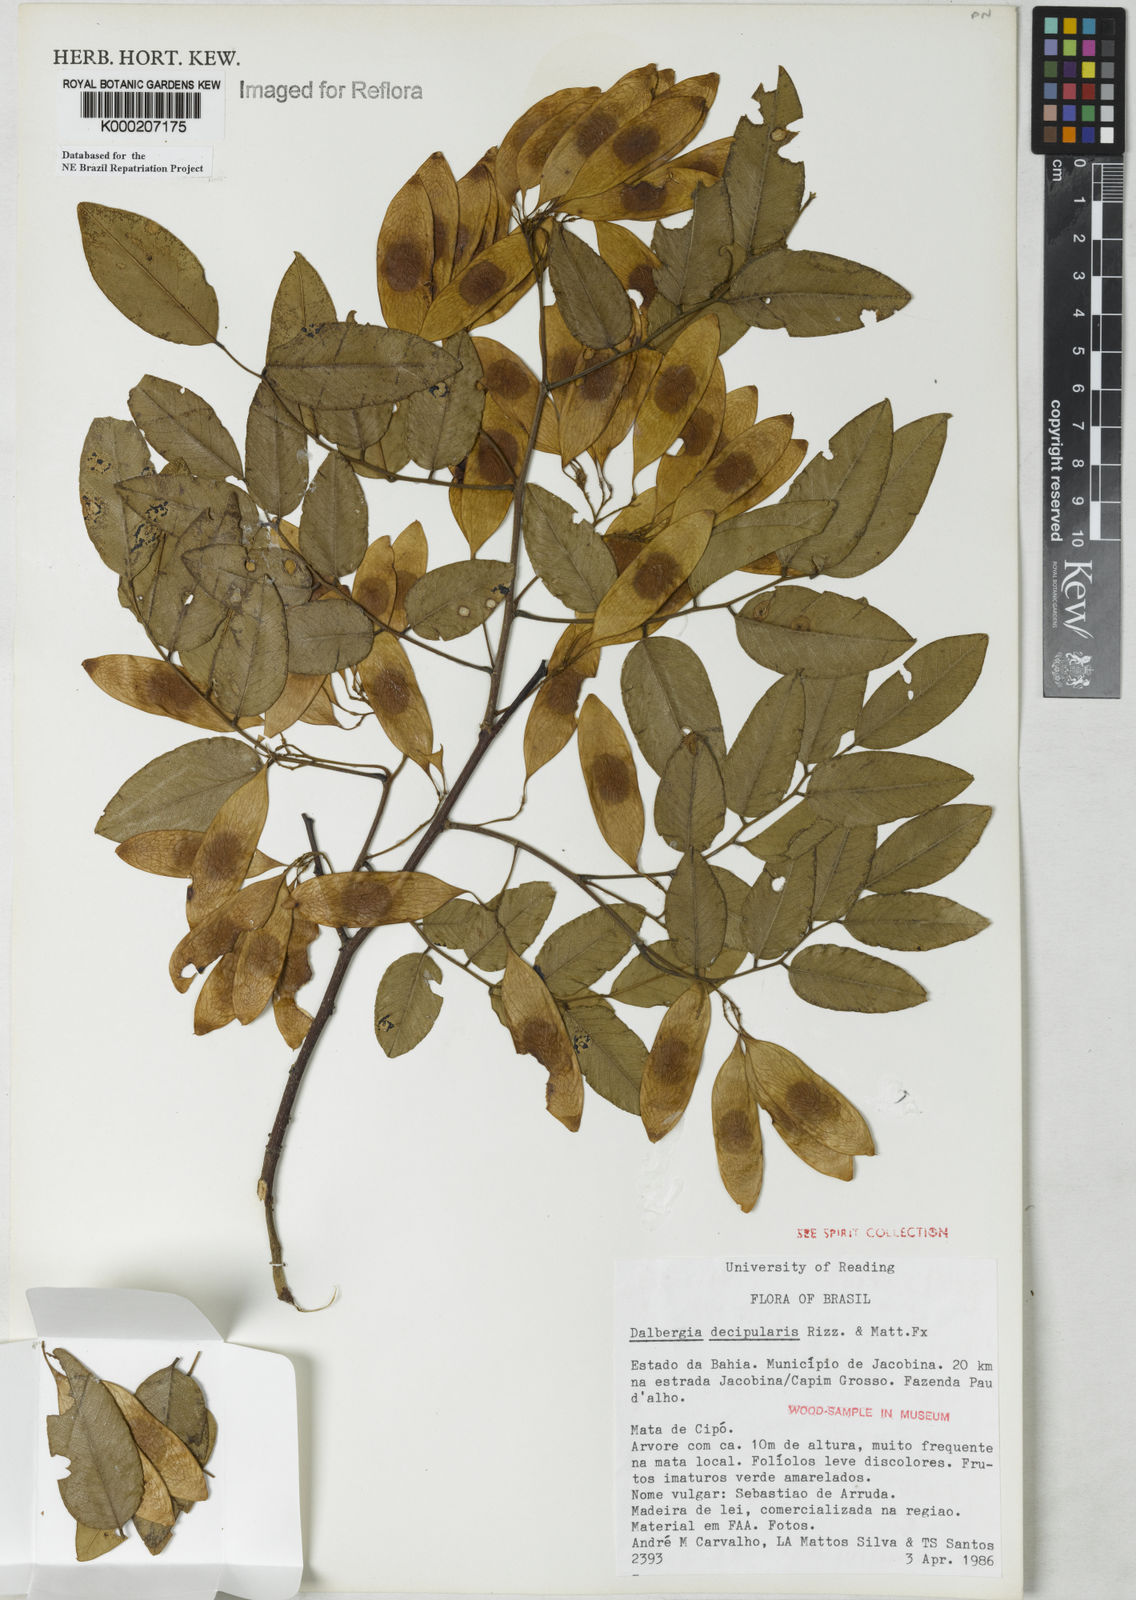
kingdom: Plantae
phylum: Tracheophyta
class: Magnoliopsida
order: Fabales
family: Fabaceae
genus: Dalbergia
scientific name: Dalbergia decipularis
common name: Brazilian tulipwood
